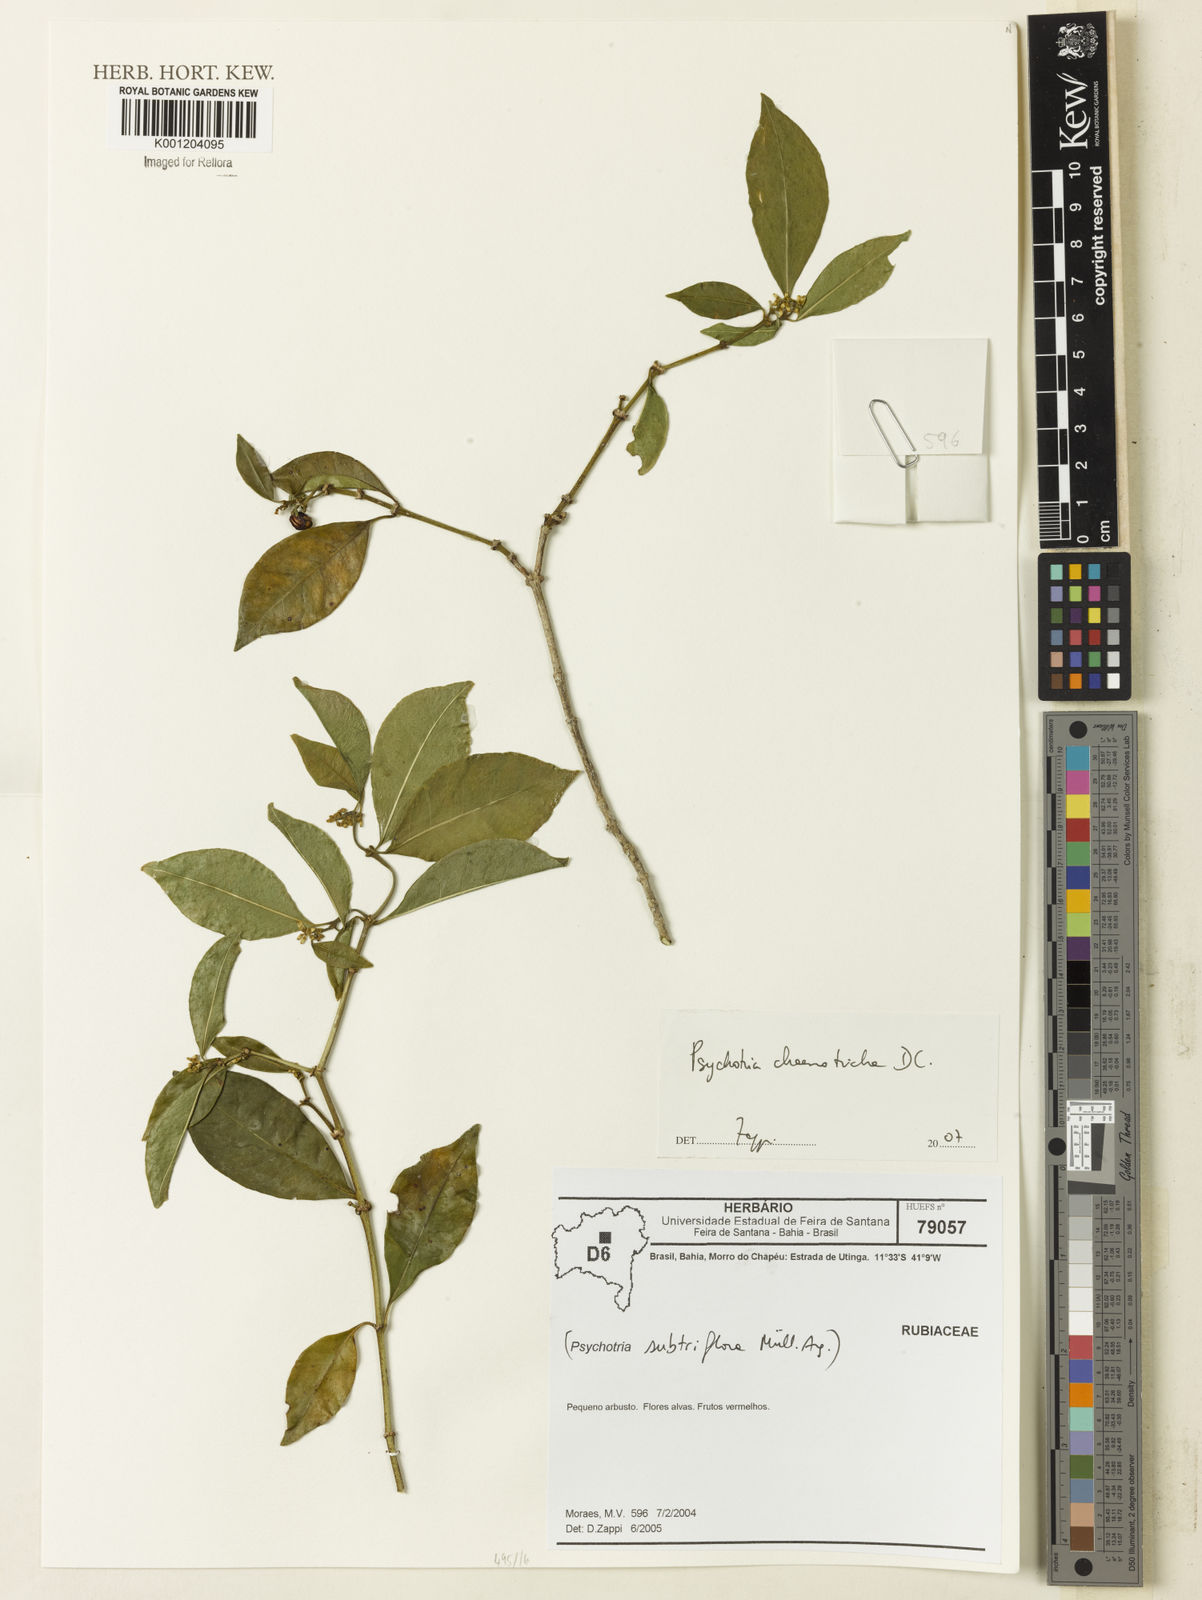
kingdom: Plantae
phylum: Tracheophyta
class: Magnoliopsida
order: Gentianales
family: Rubiaceae
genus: Eumachia
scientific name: Eumachia chaenotricha
